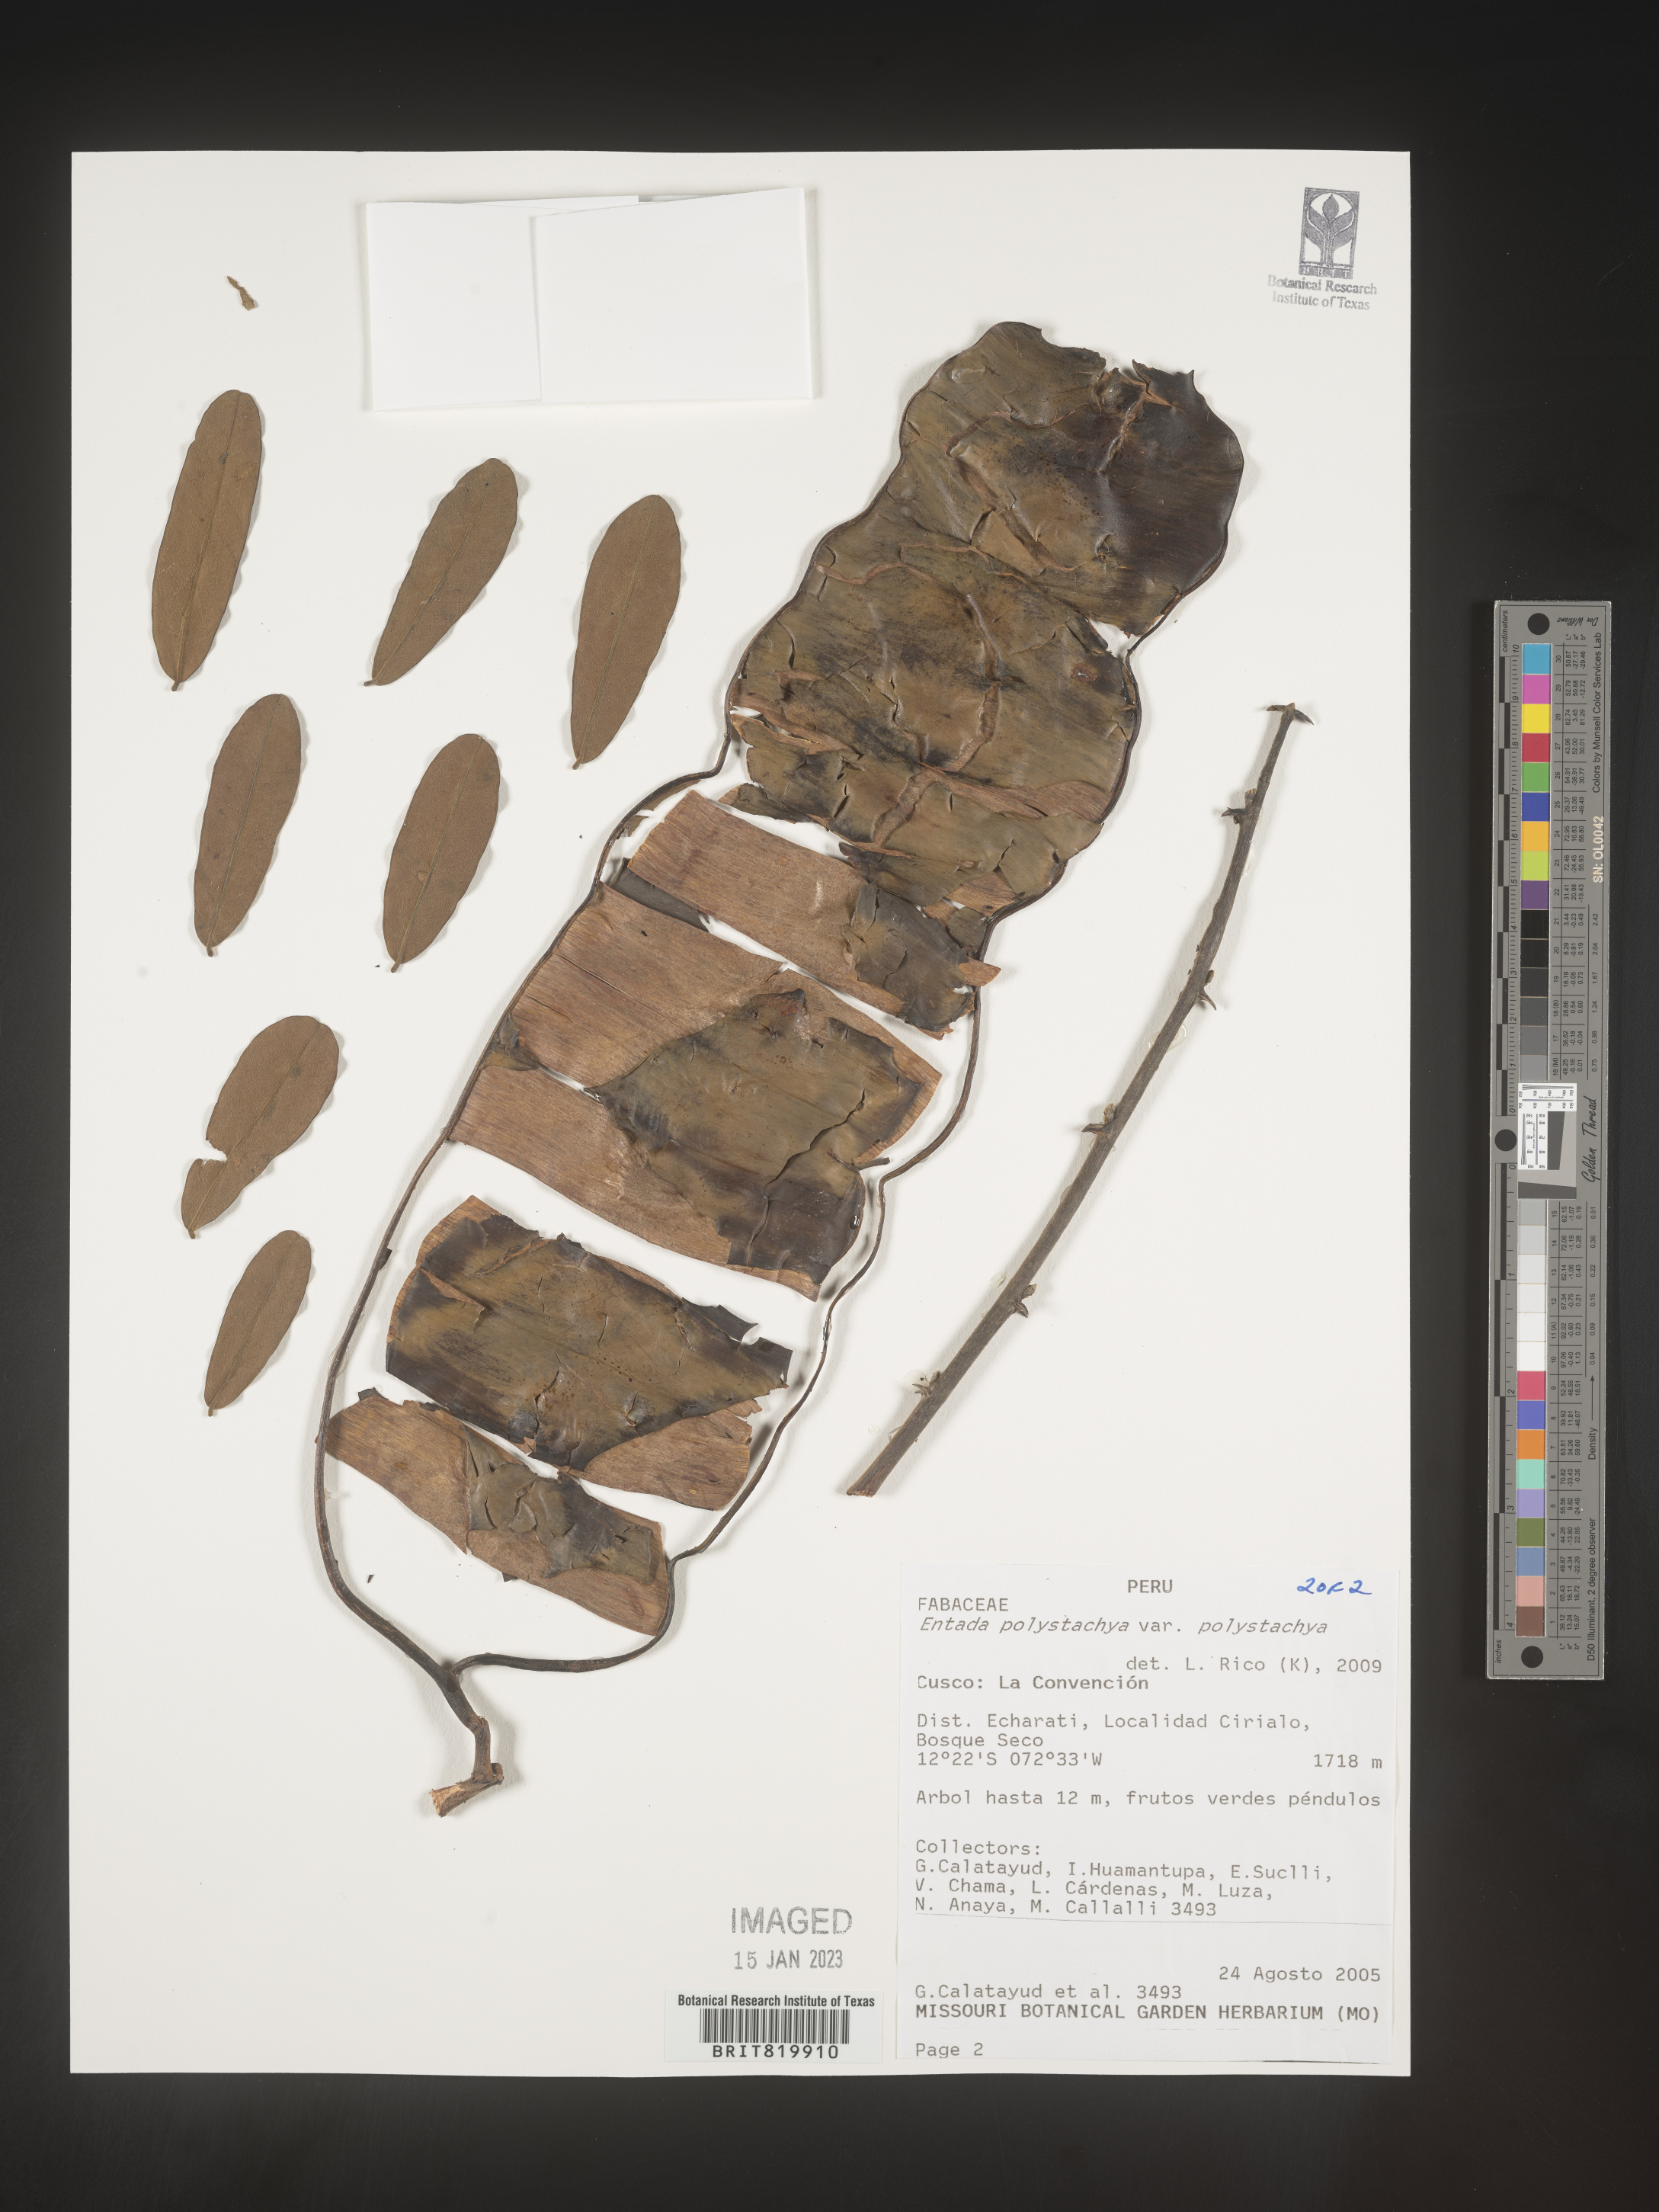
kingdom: Plantae
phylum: Tracheophyta
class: Magnoliopsida
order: Fabales
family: Fabaceae
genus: Entada
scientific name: Entada
